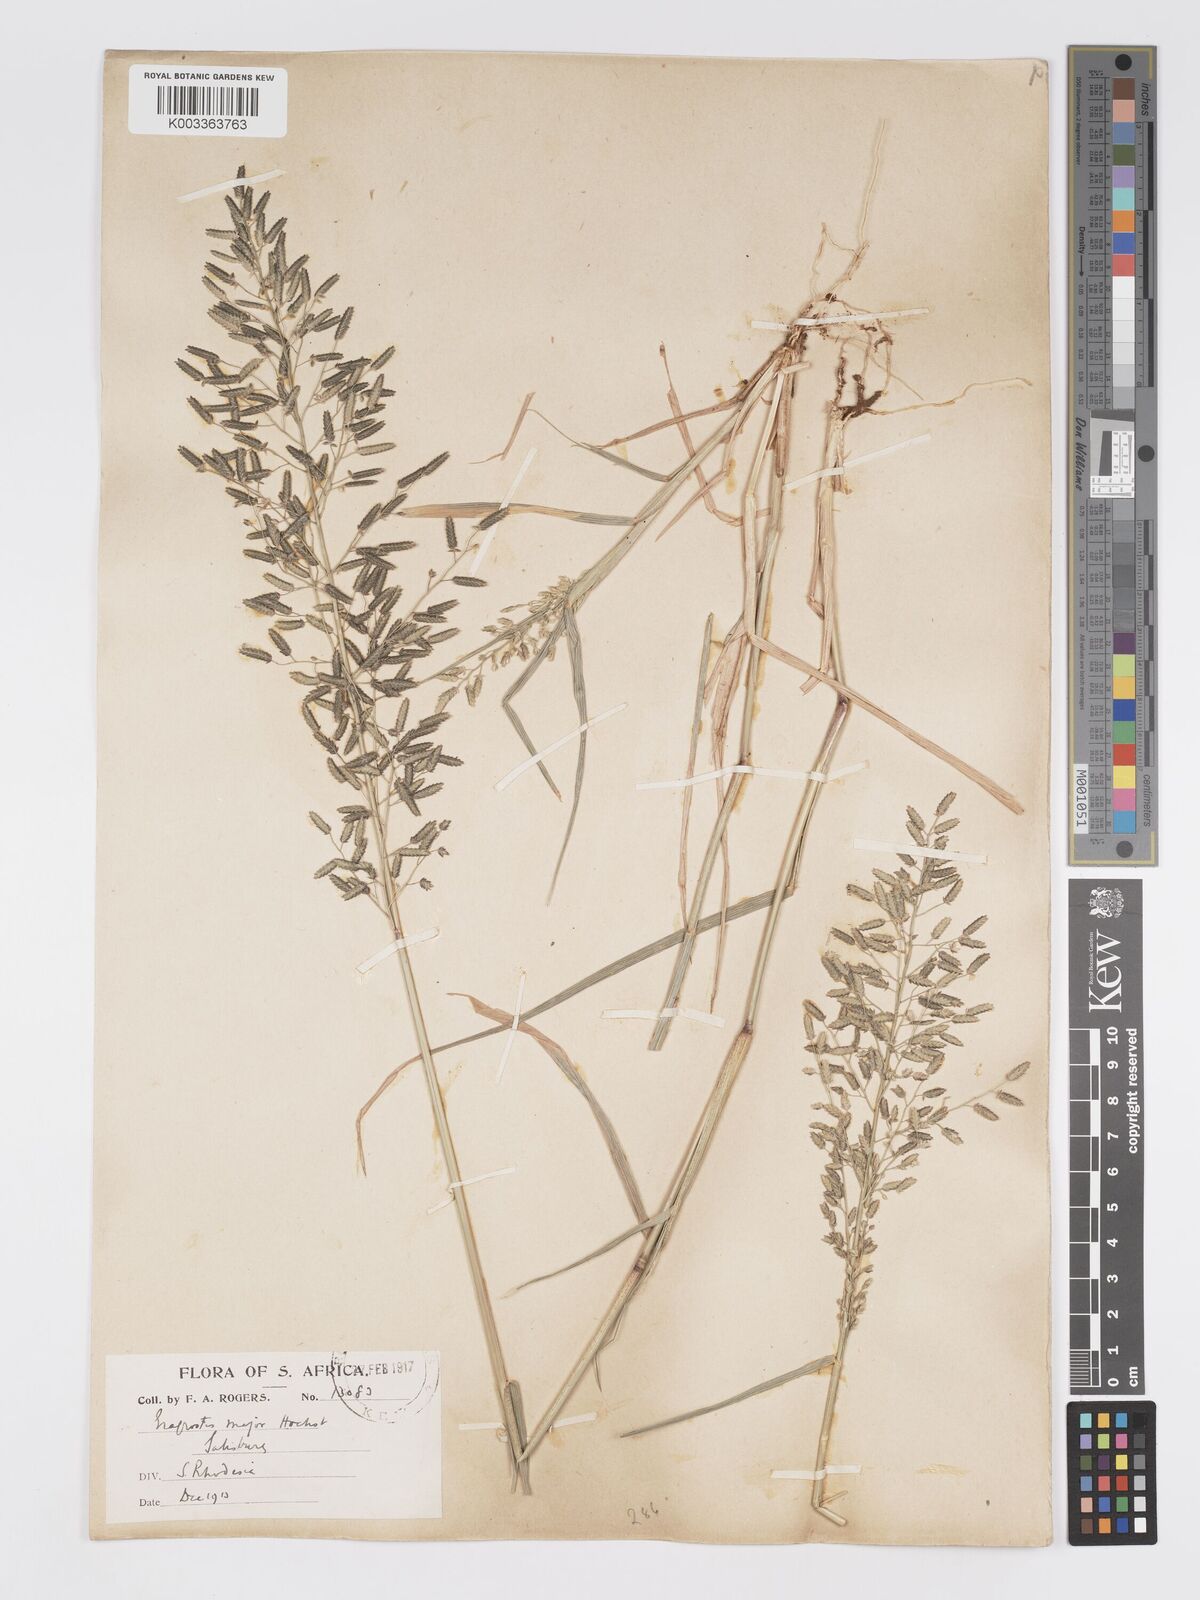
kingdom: Plantae
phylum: Tracheophyta
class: Liliopsida
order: Poales
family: Poaceae
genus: Eragrostis
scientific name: Eragrostis cilianensis
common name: Stinkgrass
